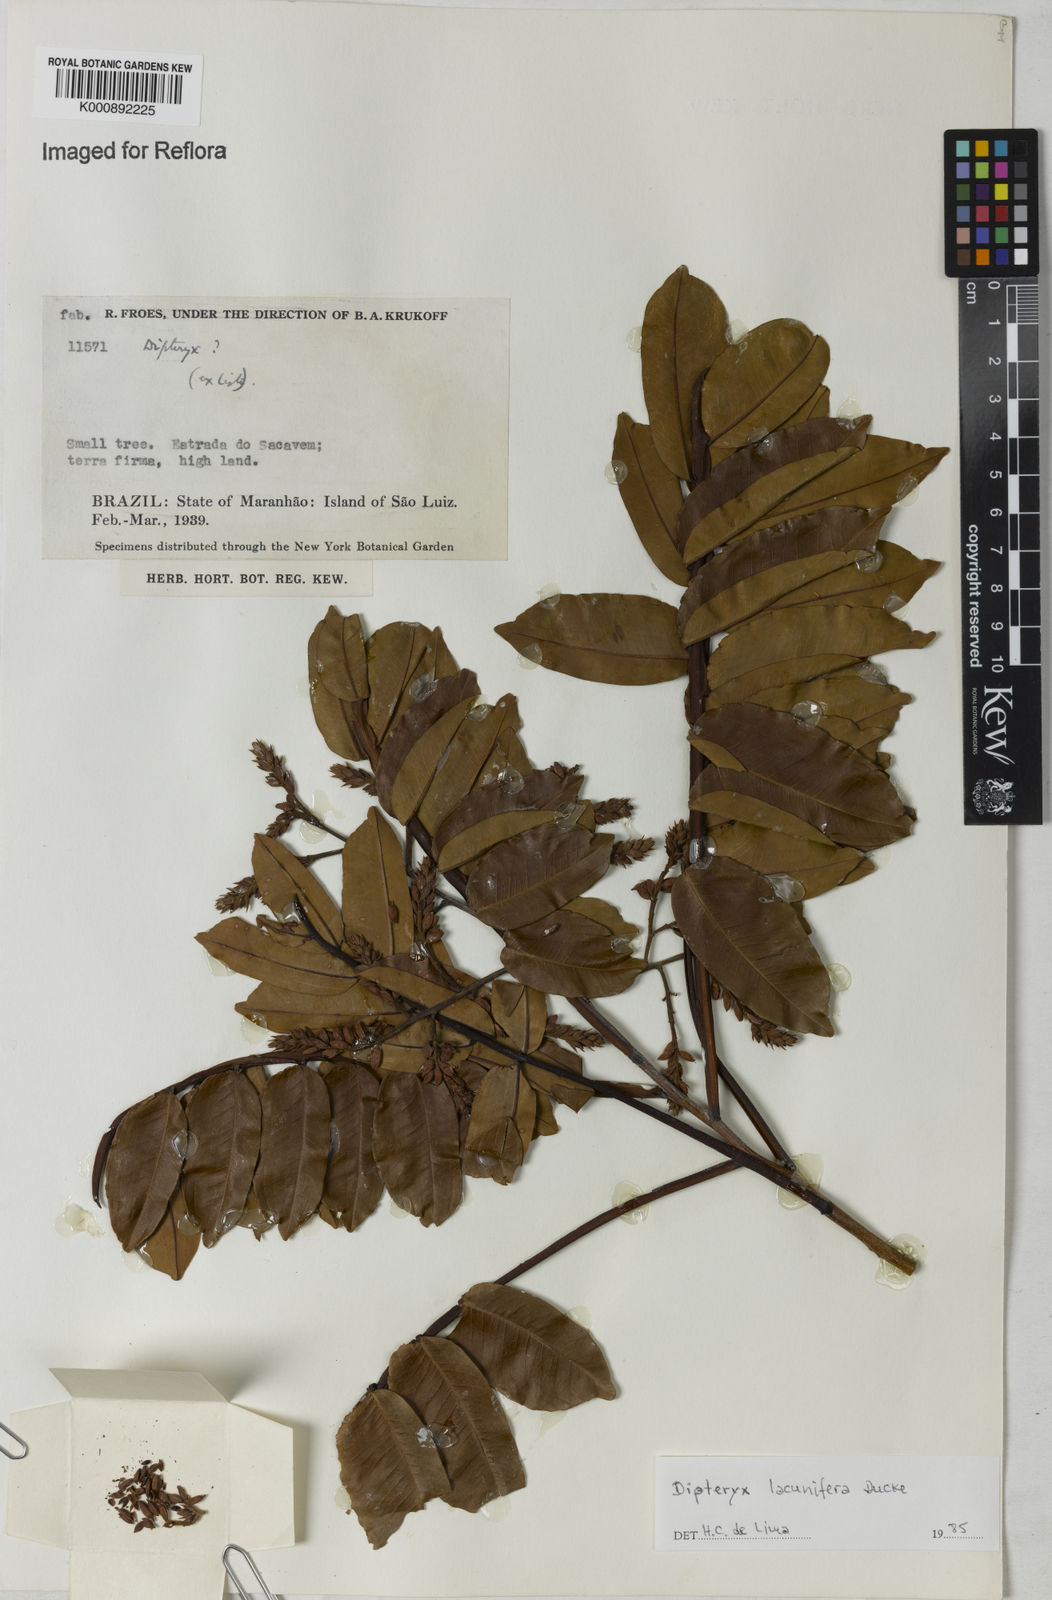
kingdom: Plantae
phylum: Tracheophyta
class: Magnoliopsida
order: Fabales
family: Fabaceae
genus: Dipteryx
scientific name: Dipteryx lacunifera
